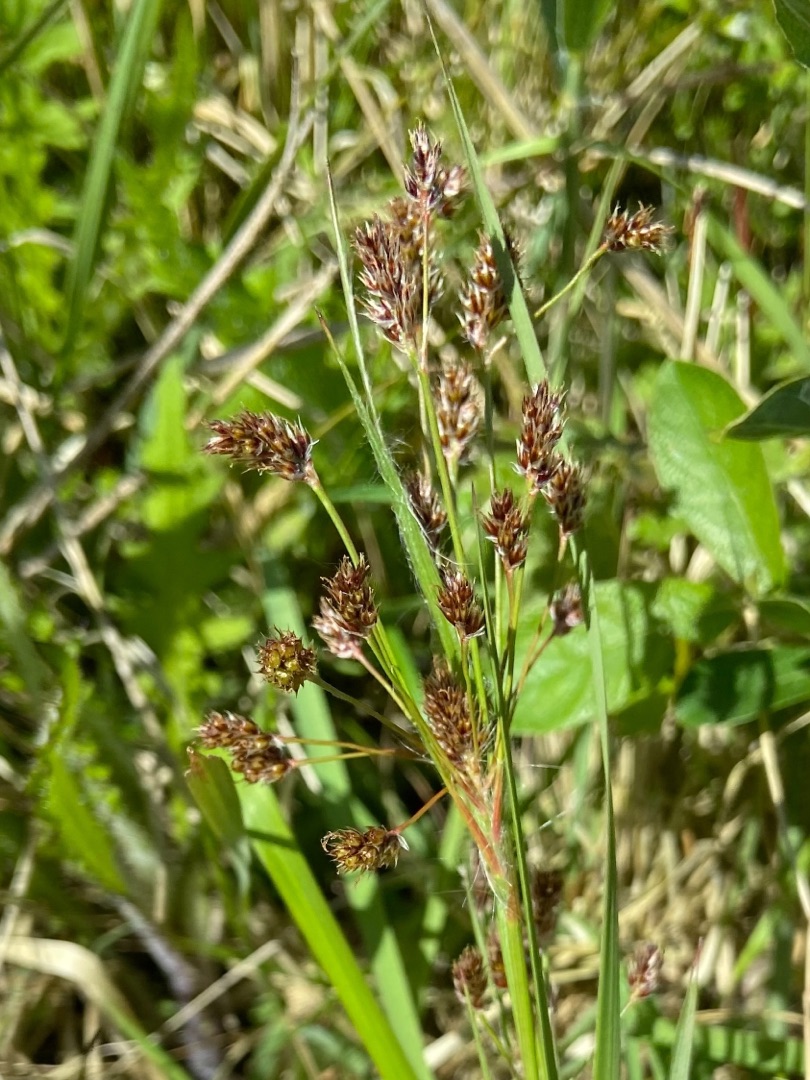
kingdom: Plantae
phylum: Tracheophyta
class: Liliopsida
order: Poales
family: Juncaceae
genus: Luzula
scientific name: Luzula multiflora
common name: Mangeblomstret frytle
